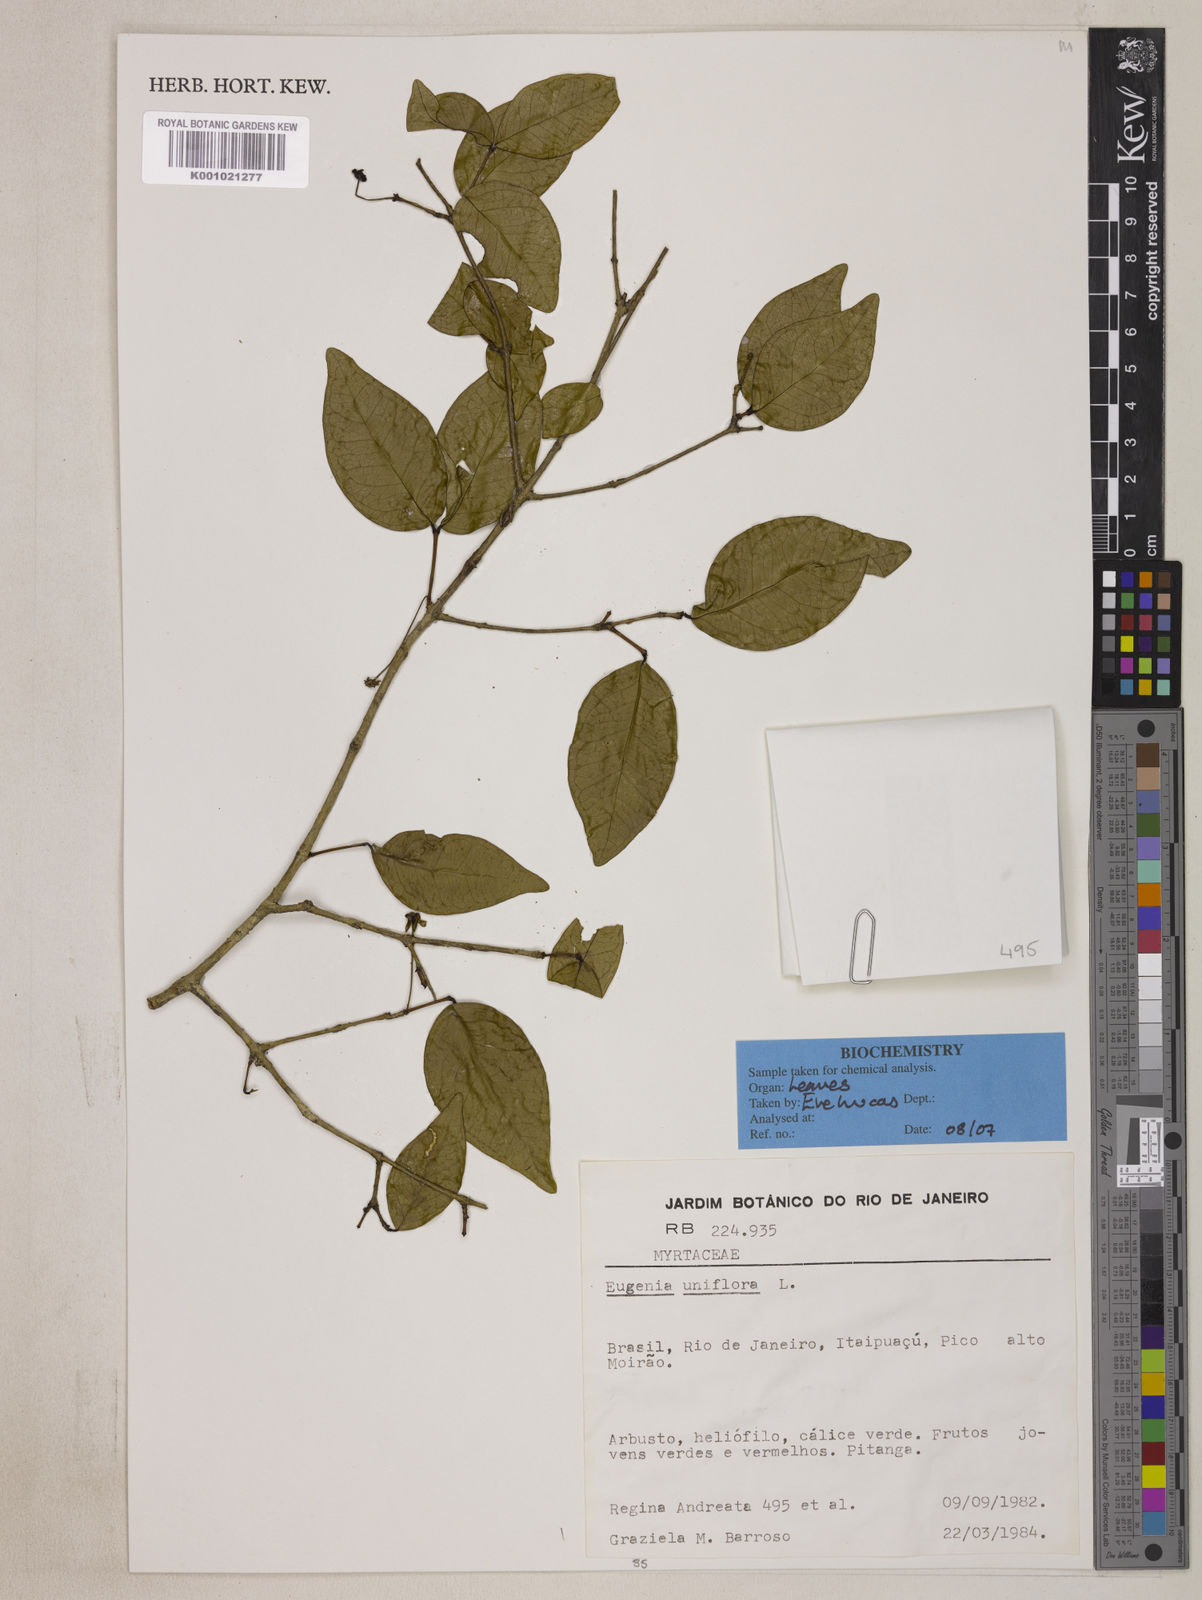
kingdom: Plantae
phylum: Tracheophyta
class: Magnoliopsida
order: Myrtales
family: Myrtaceae
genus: Eugenia
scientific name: Eugenia uniflora
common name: Surinam cherry
